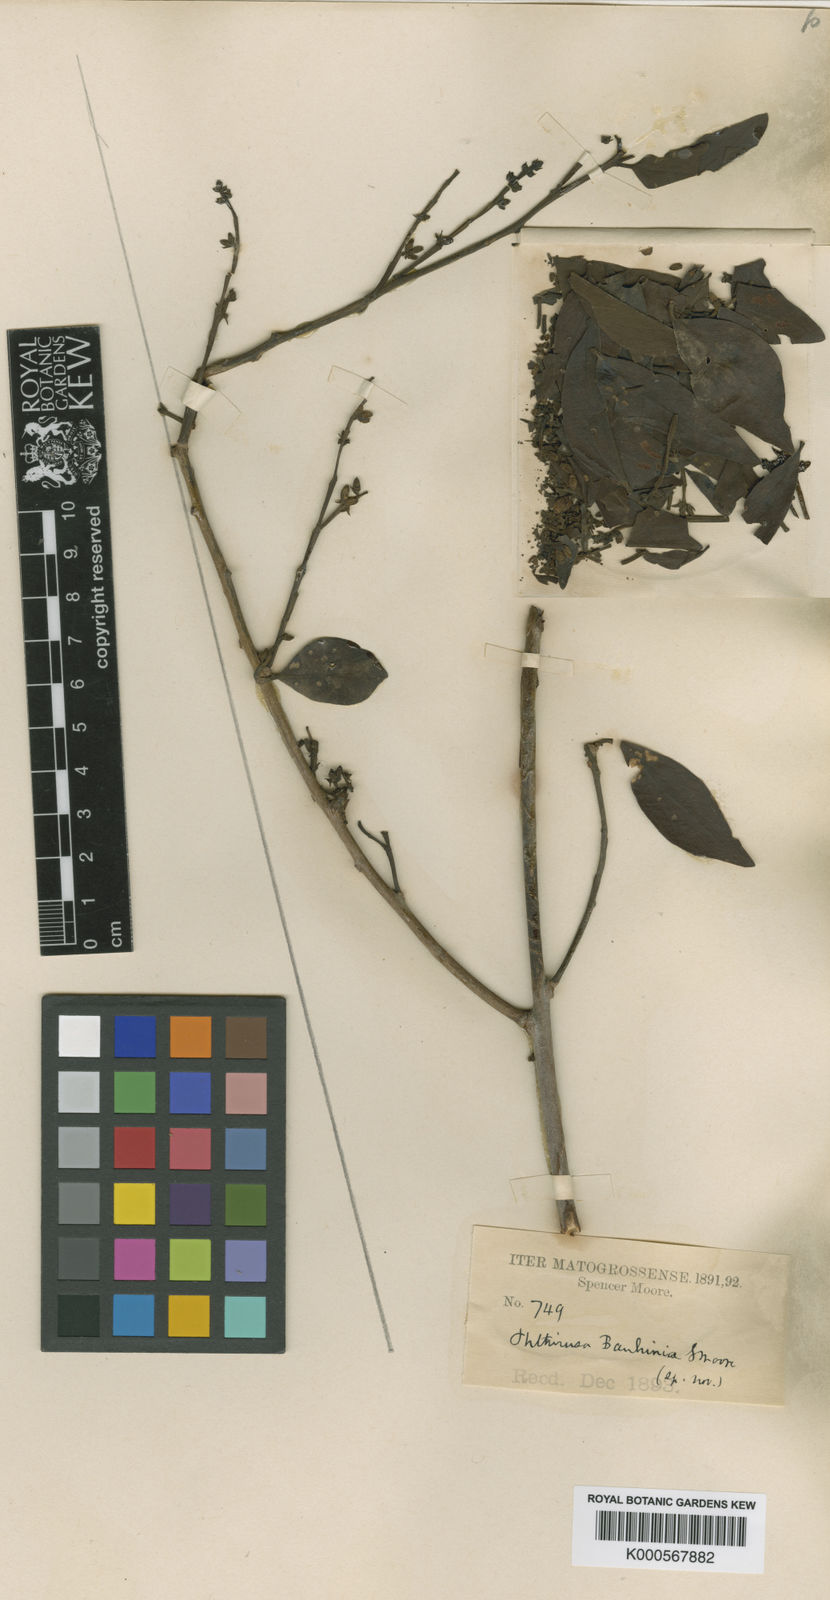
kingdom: Plantae
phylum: Tracheophyta
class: Magnoliopsida
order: Santalales
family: Loranthaceae
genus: Phthirusa
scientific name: Phthirusa bauhiniae
